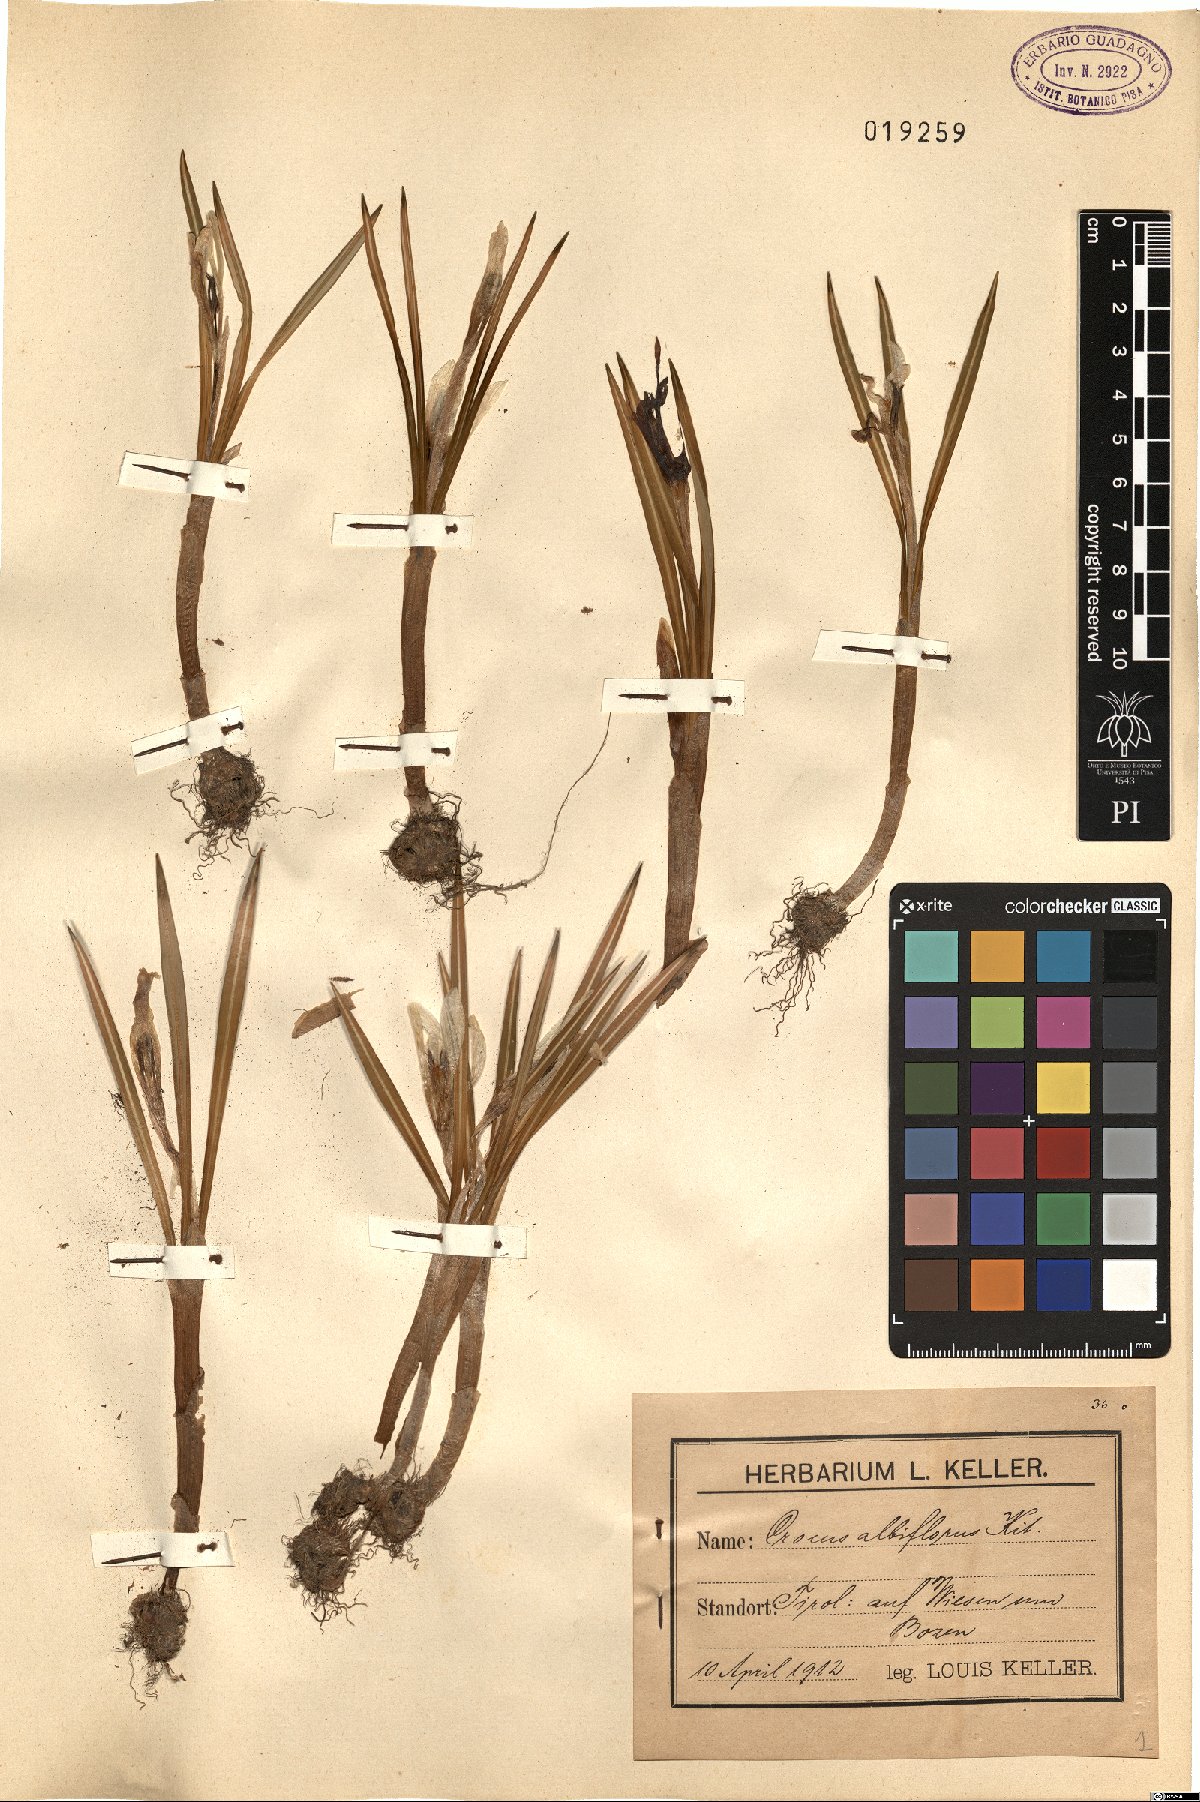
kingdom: Plantae
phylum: Tracheophyta
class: Liliopsida
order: Asparagales
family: Iridaceae
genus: Crocus
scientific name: Crocus vernus
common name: Spring crocus
